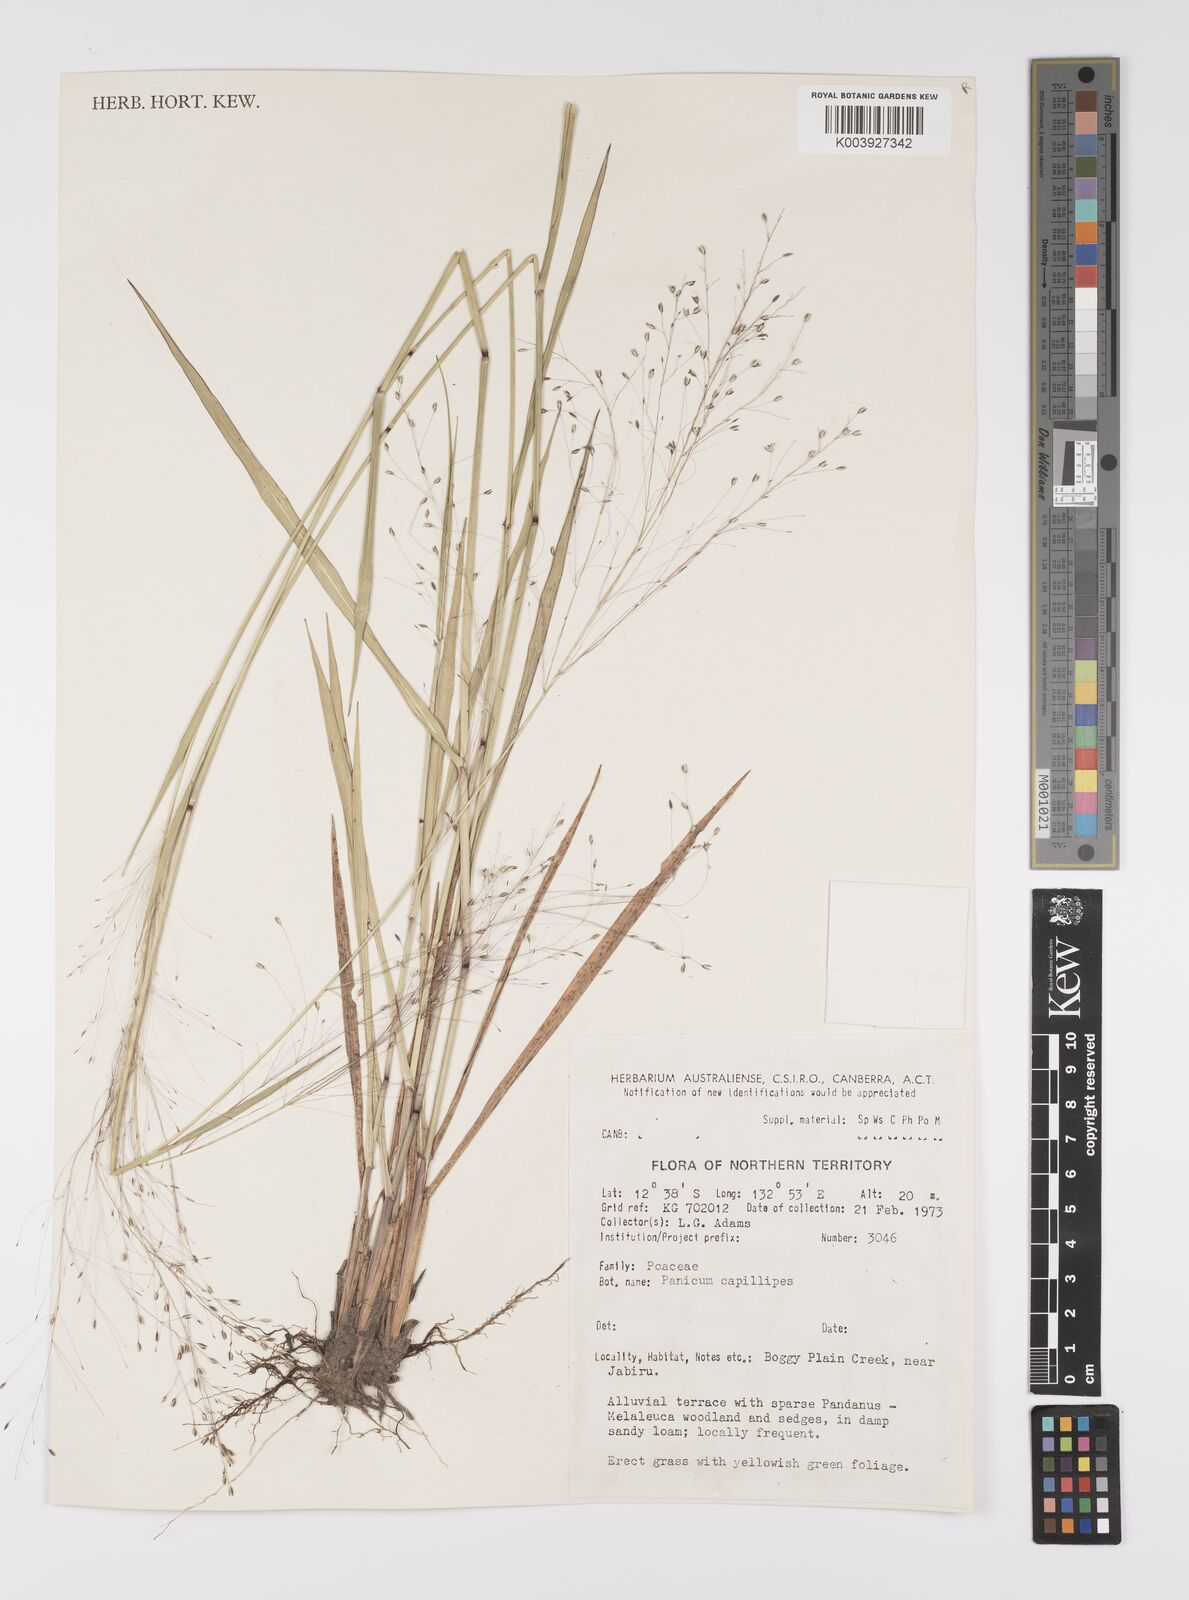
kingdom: Plantae
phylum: Tracheophyta
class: Liliopsida
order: Poales
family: Poaceae
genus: Whiteochloa
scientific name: Whiteochloa capillipes
